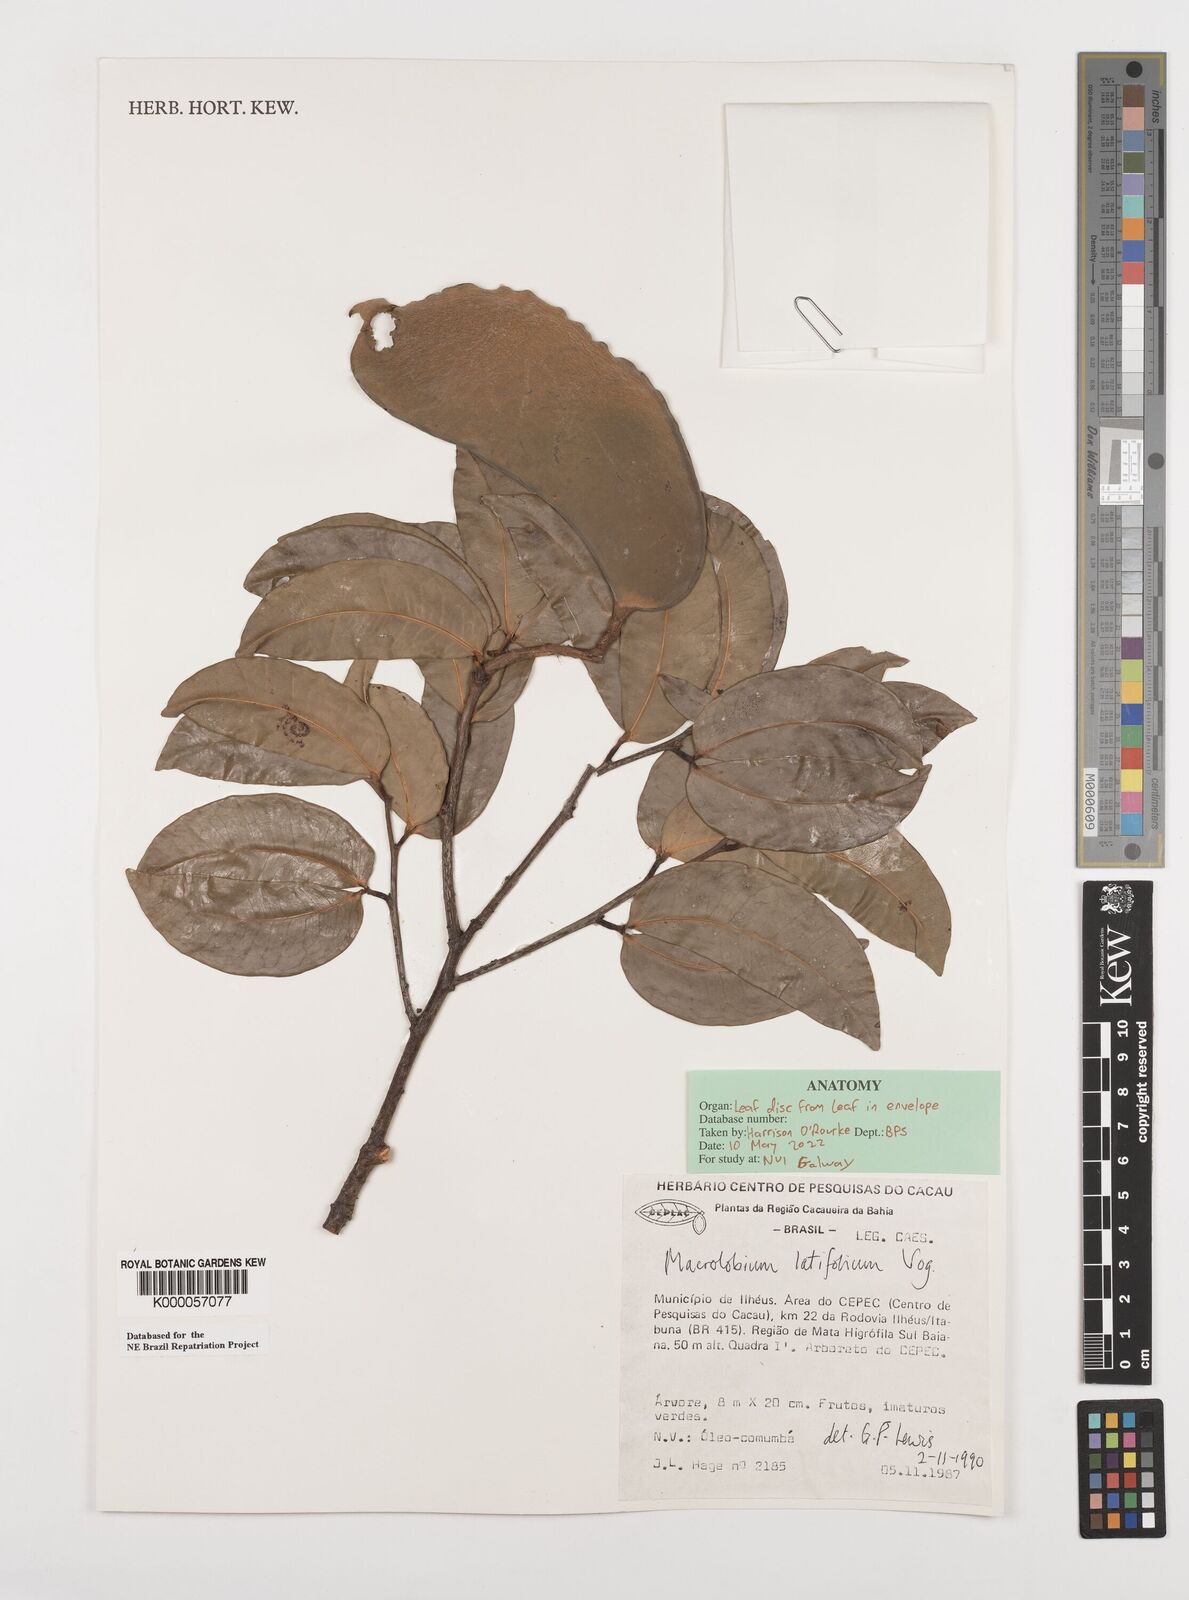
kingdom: Plantae
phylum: Tracheophyta
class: Magnoliopsida
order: Fabales
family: Fabaceae
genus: Macrolobium
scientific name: Macrolobium latifolium
